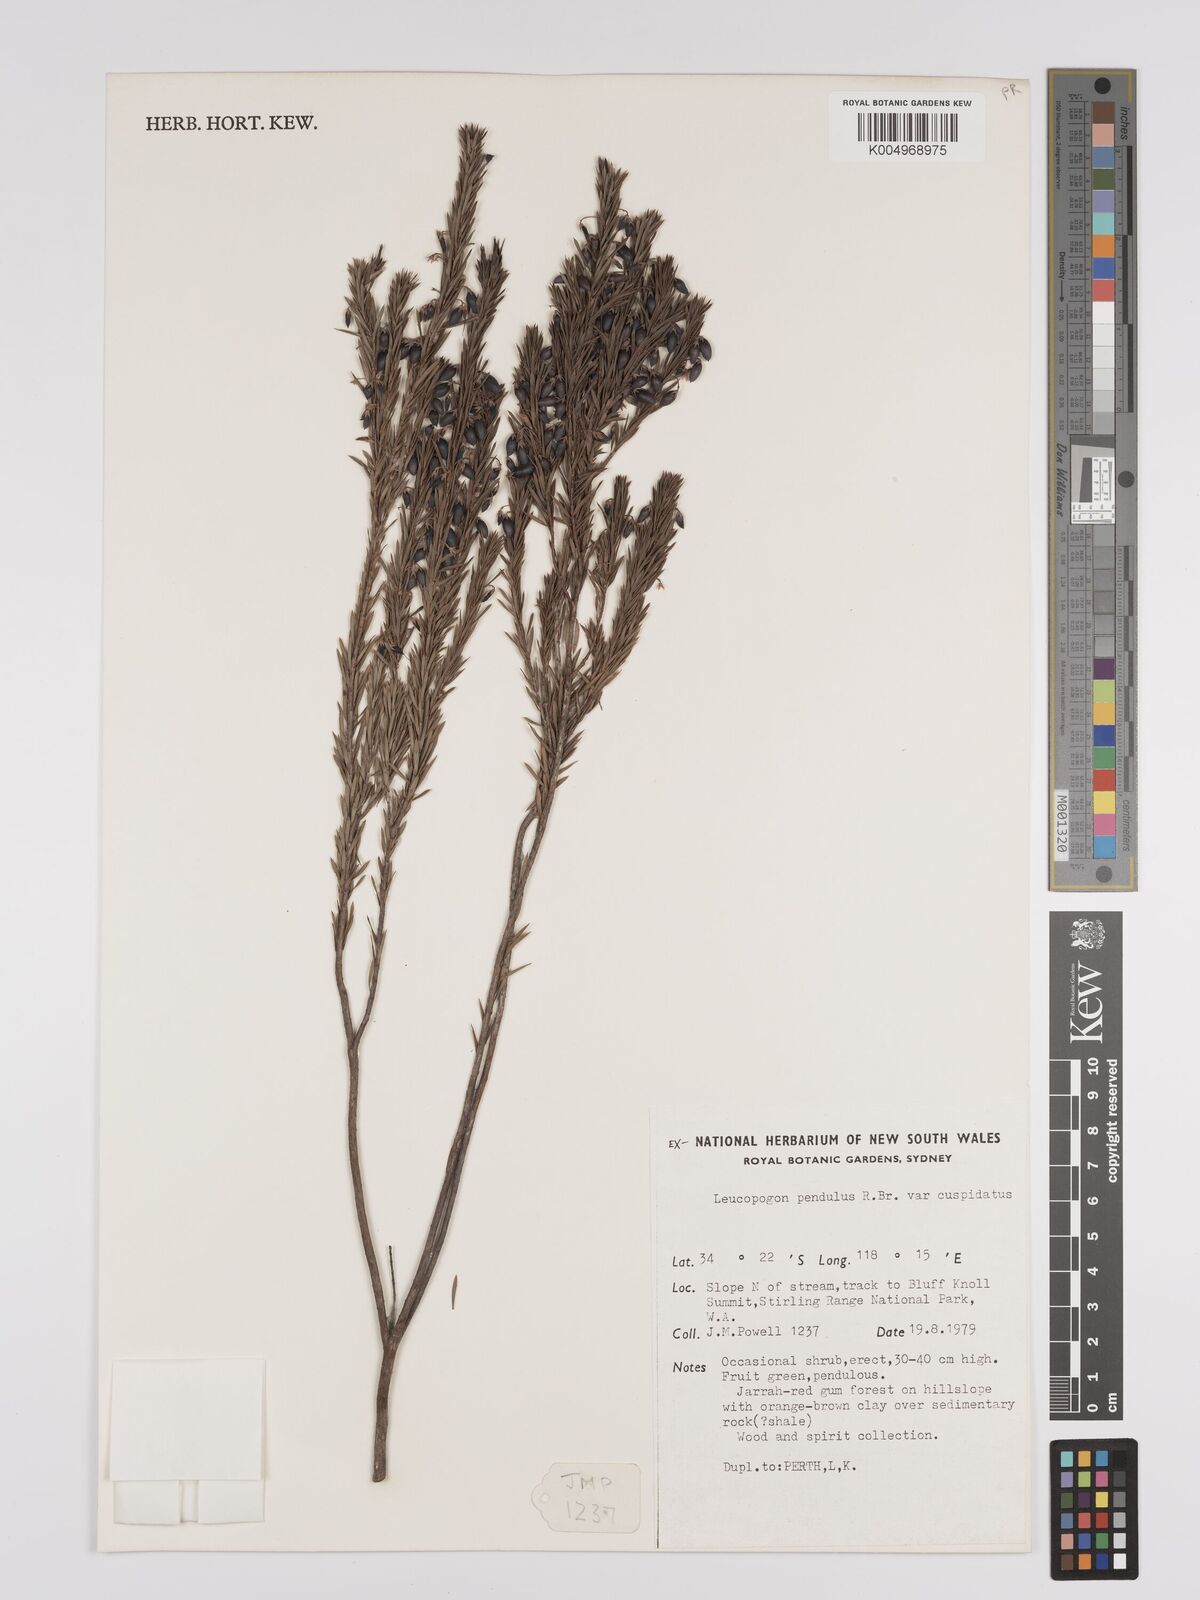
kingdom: Plantae
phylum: Tracheophyta
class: Magnoliopsida
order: Ericales
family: Ericaceae
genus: Styphelia
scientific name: Styphelia pendula
